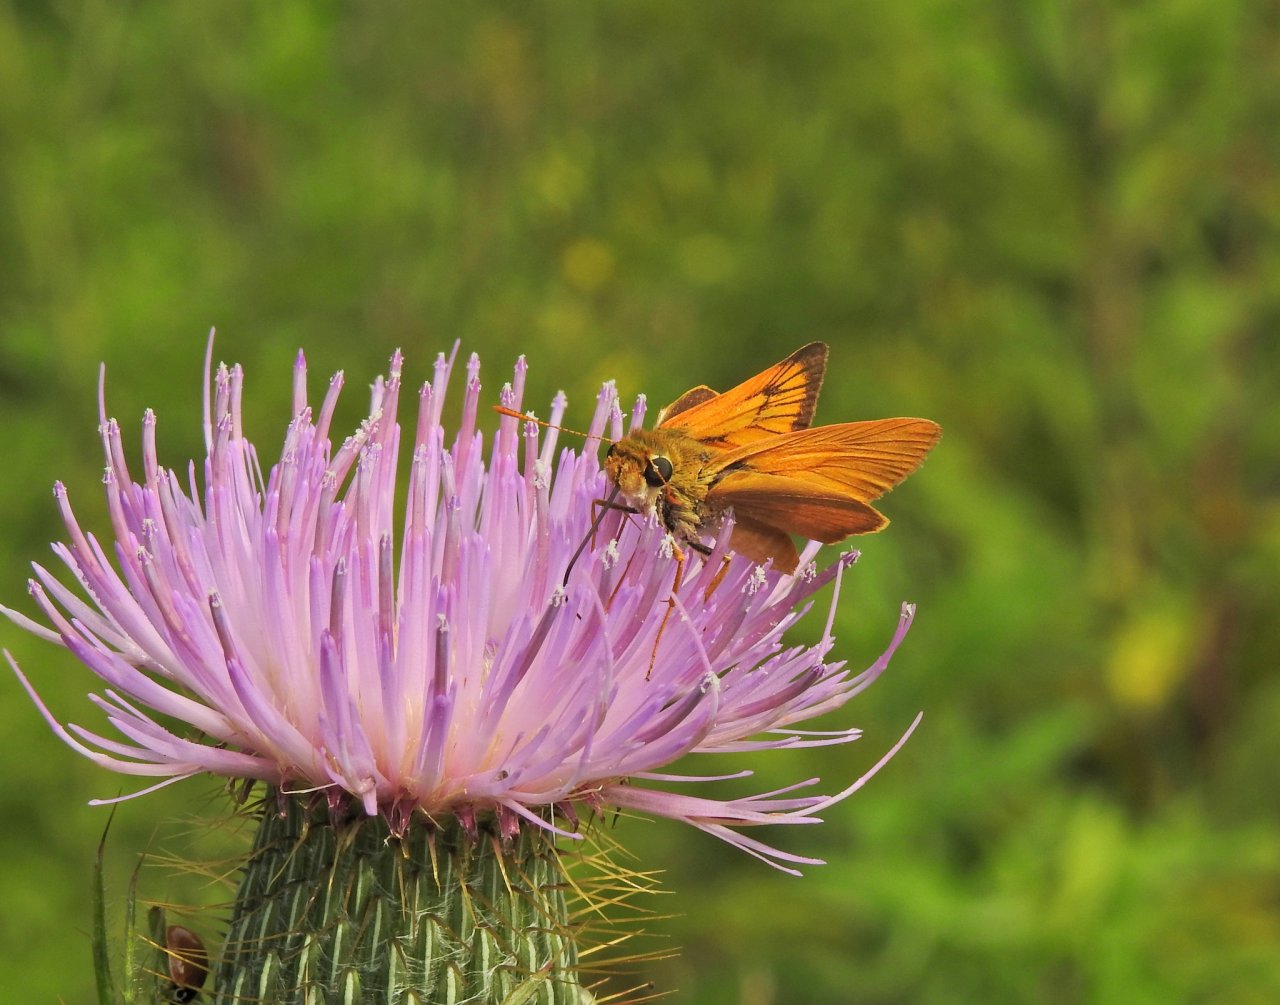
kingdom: Animalia
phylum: Arthropoda
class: Insecta
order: Lepidoptera
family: Hesperiidae
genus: Atrytone
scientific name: Atrytone delaware
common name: Delaware Skipper
